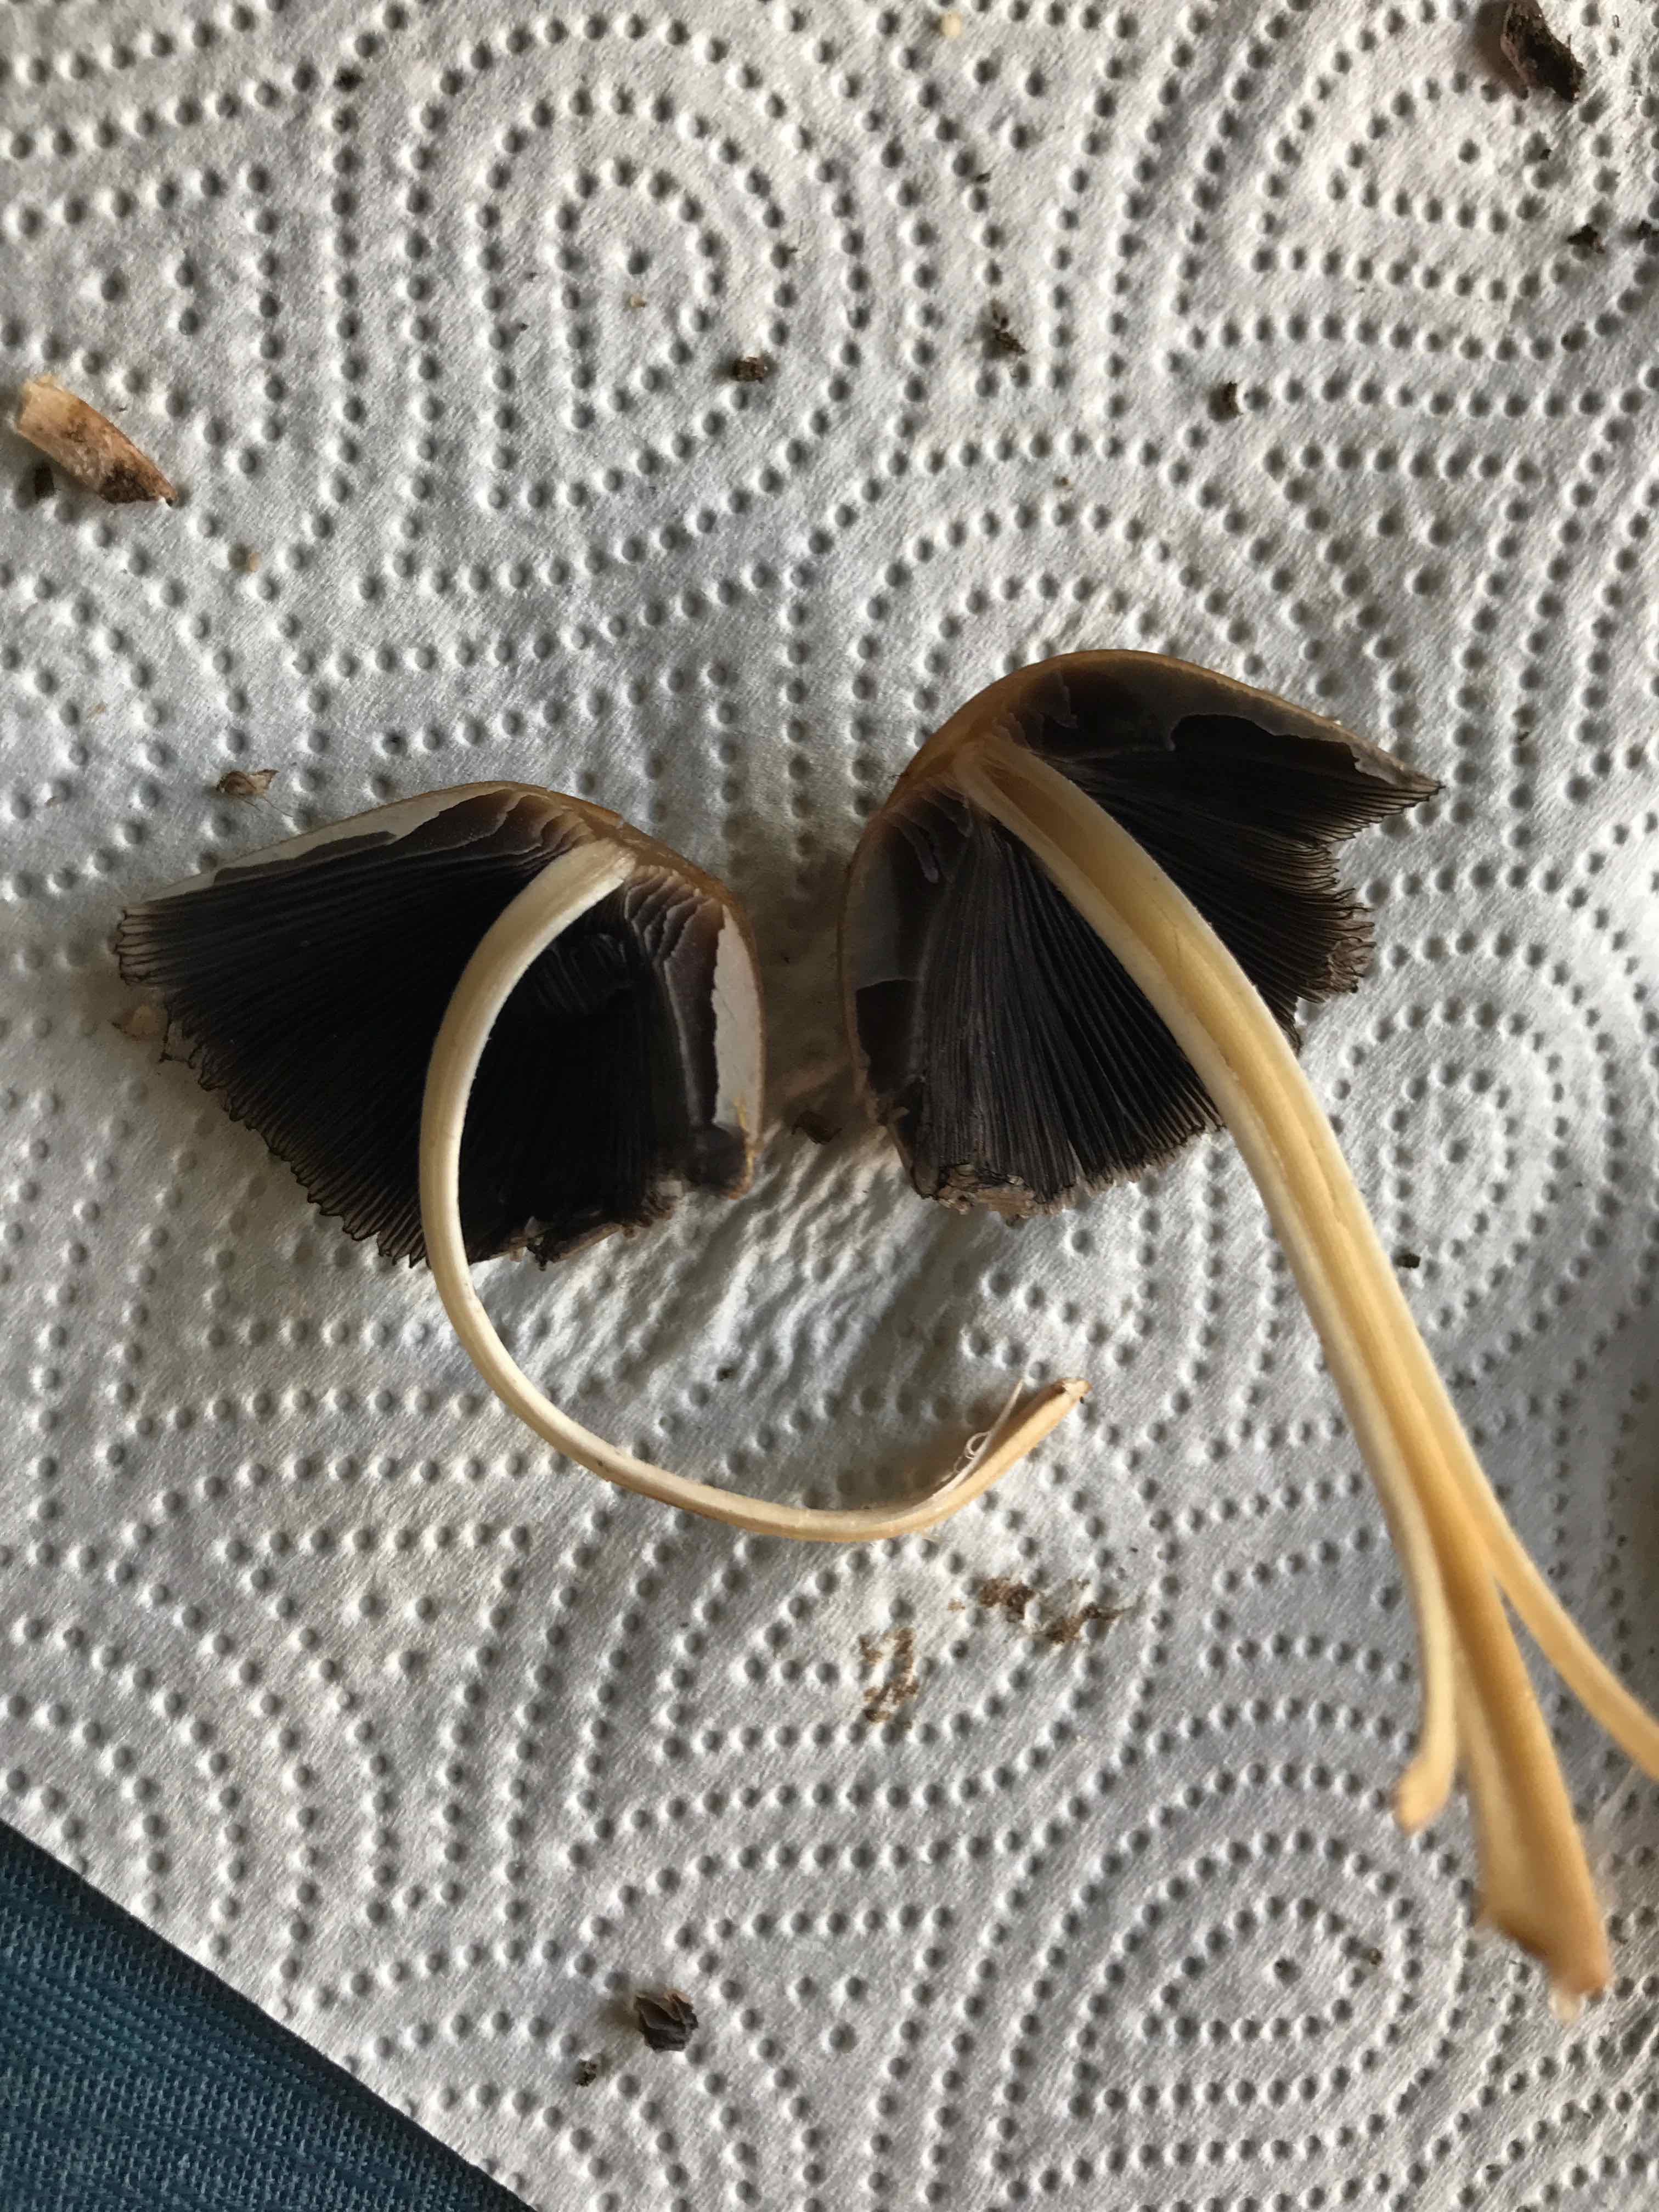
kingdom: Fungi
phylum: Basidiomycota
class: Agaricomycetes
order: Agaricales
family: Psathyrellaceae
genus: Coprinellus
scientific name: Coprinellus
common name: blækhat
